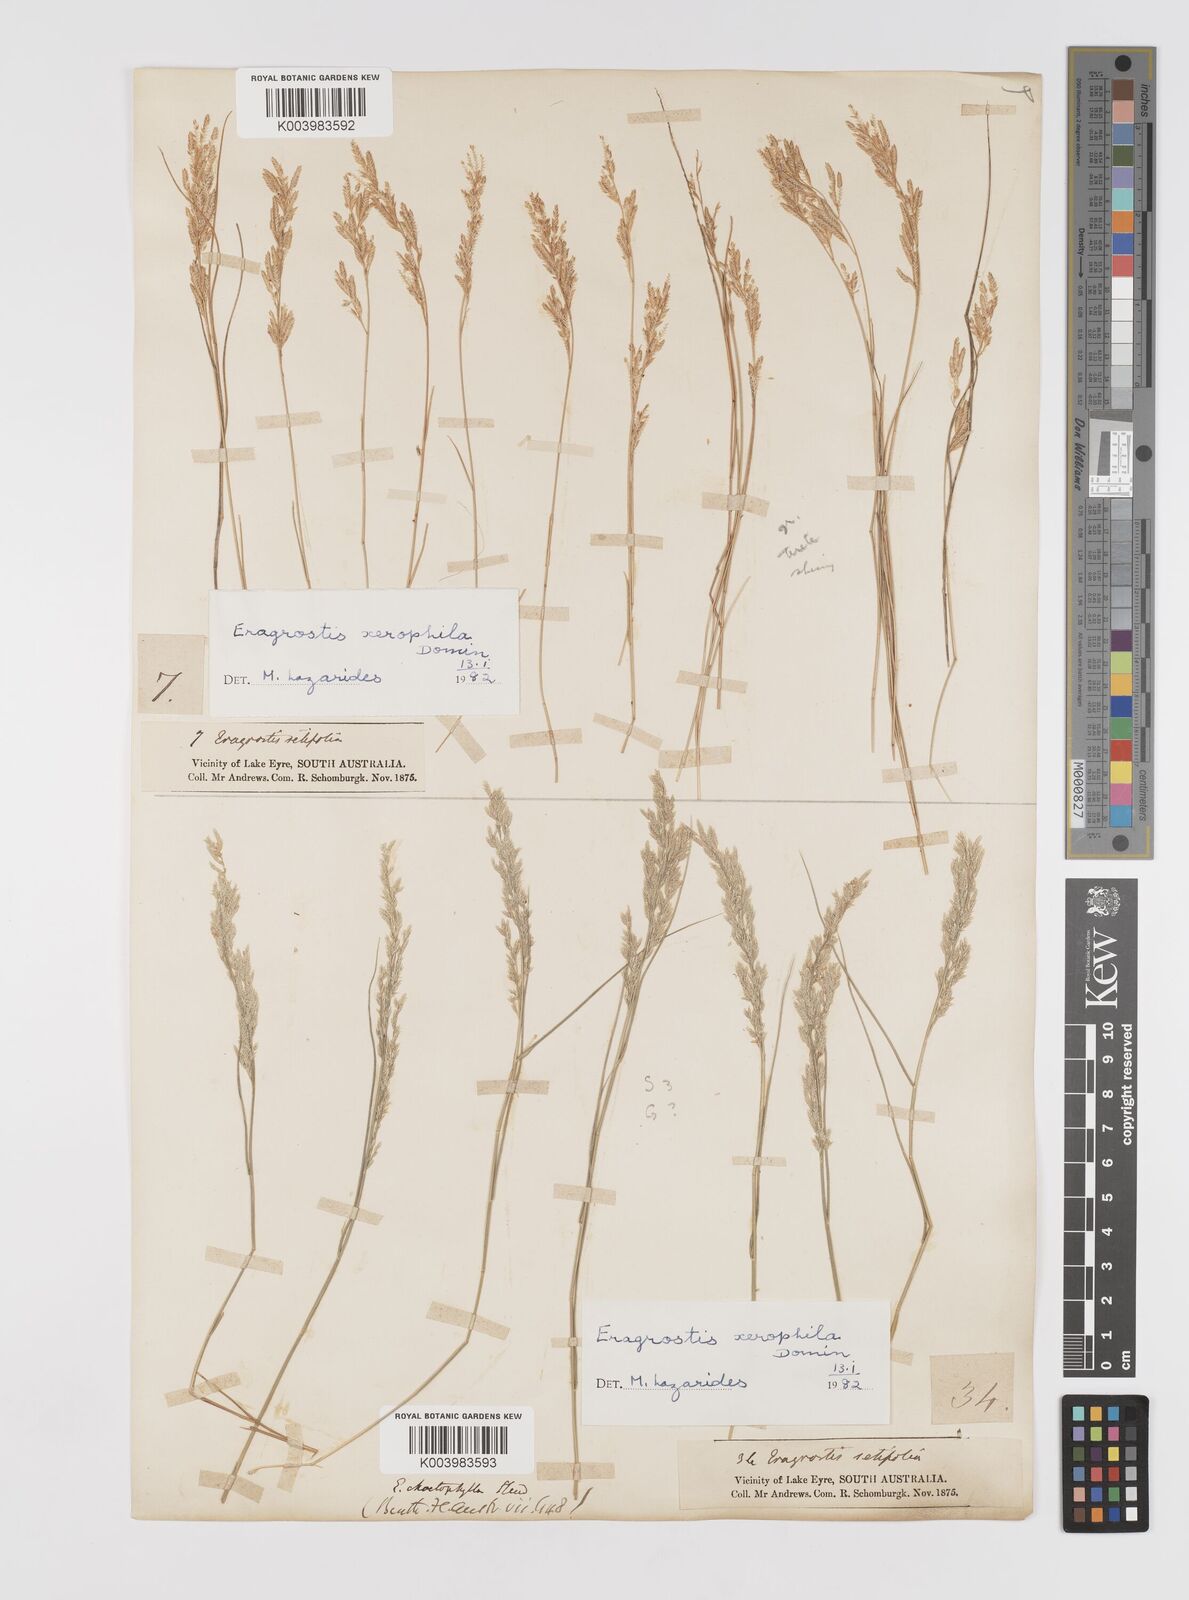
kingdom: Plantae
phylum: Tracheophyta
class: Liliopsida
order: Poales
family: Poaceae
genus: Eragrostis
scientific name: Eragrostis xerophila
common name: Wire wandarrie grass
